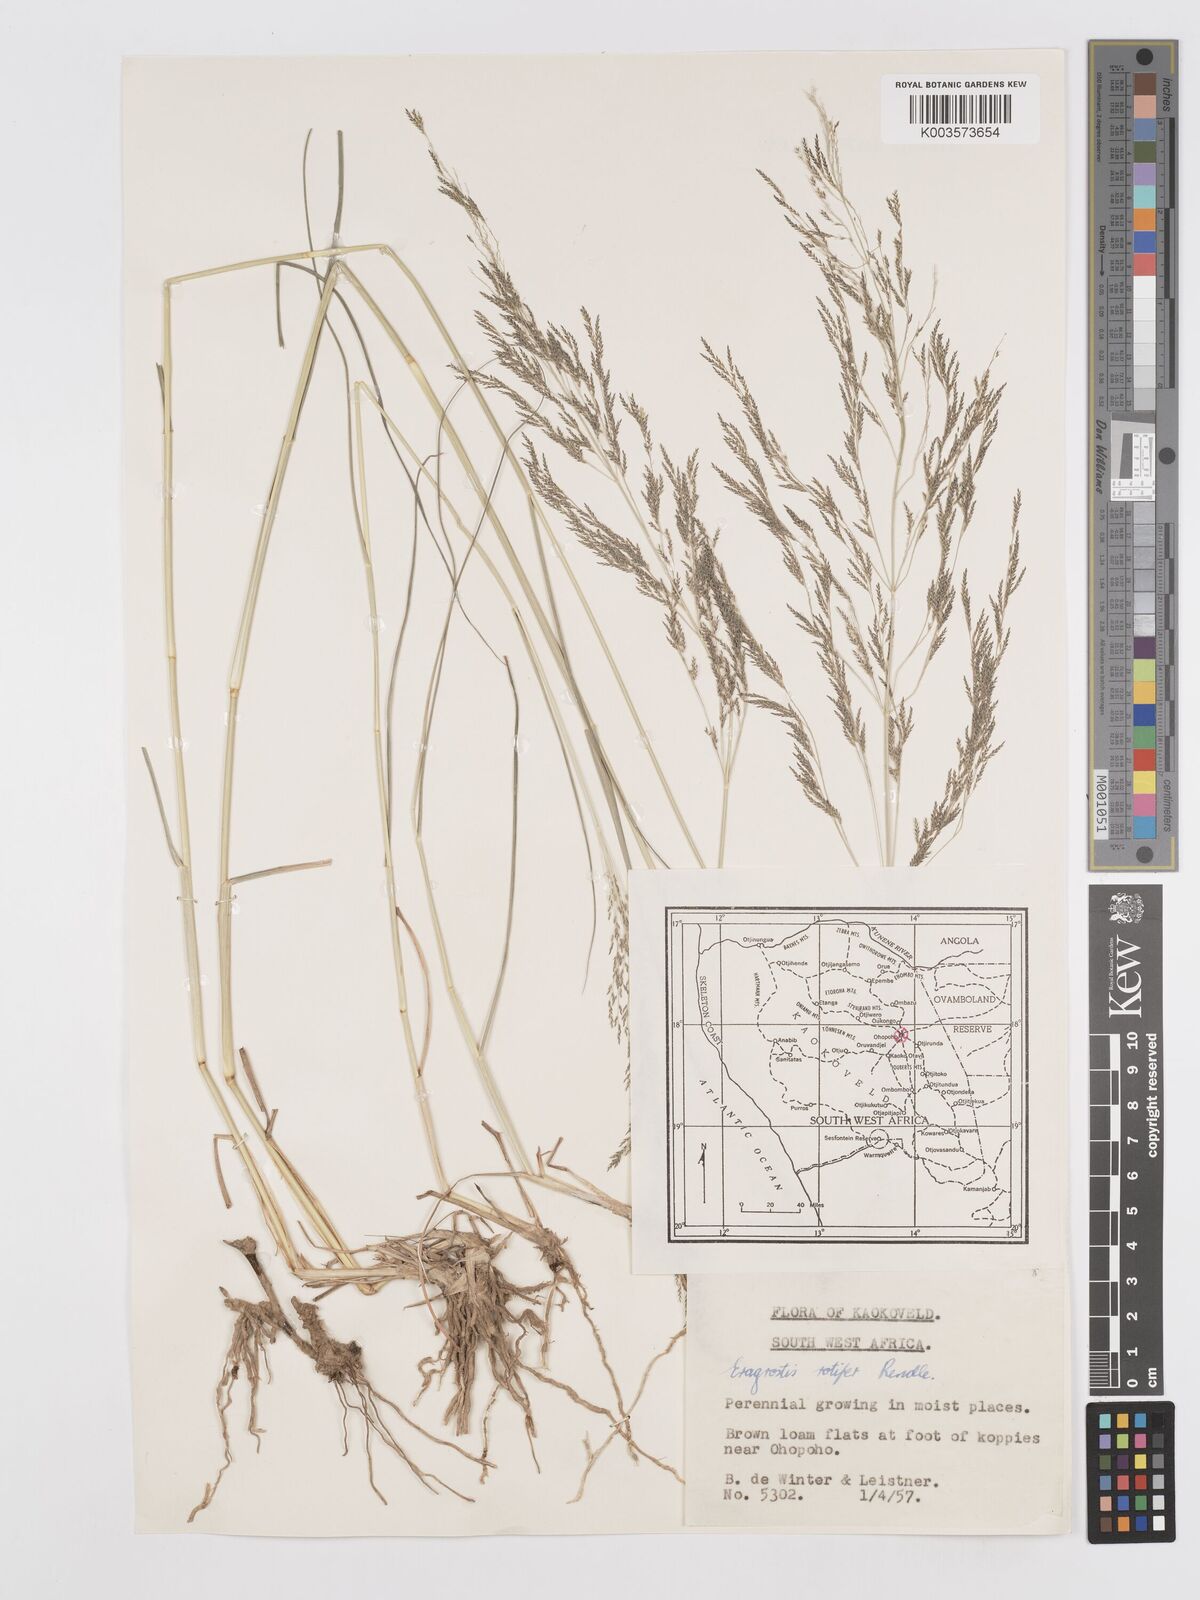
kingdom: Plantae
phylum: Tracheophyta
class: Liliopsida
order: Poales
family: Poaceae
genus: Eragrostis
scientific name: Eragrostis rotifer
